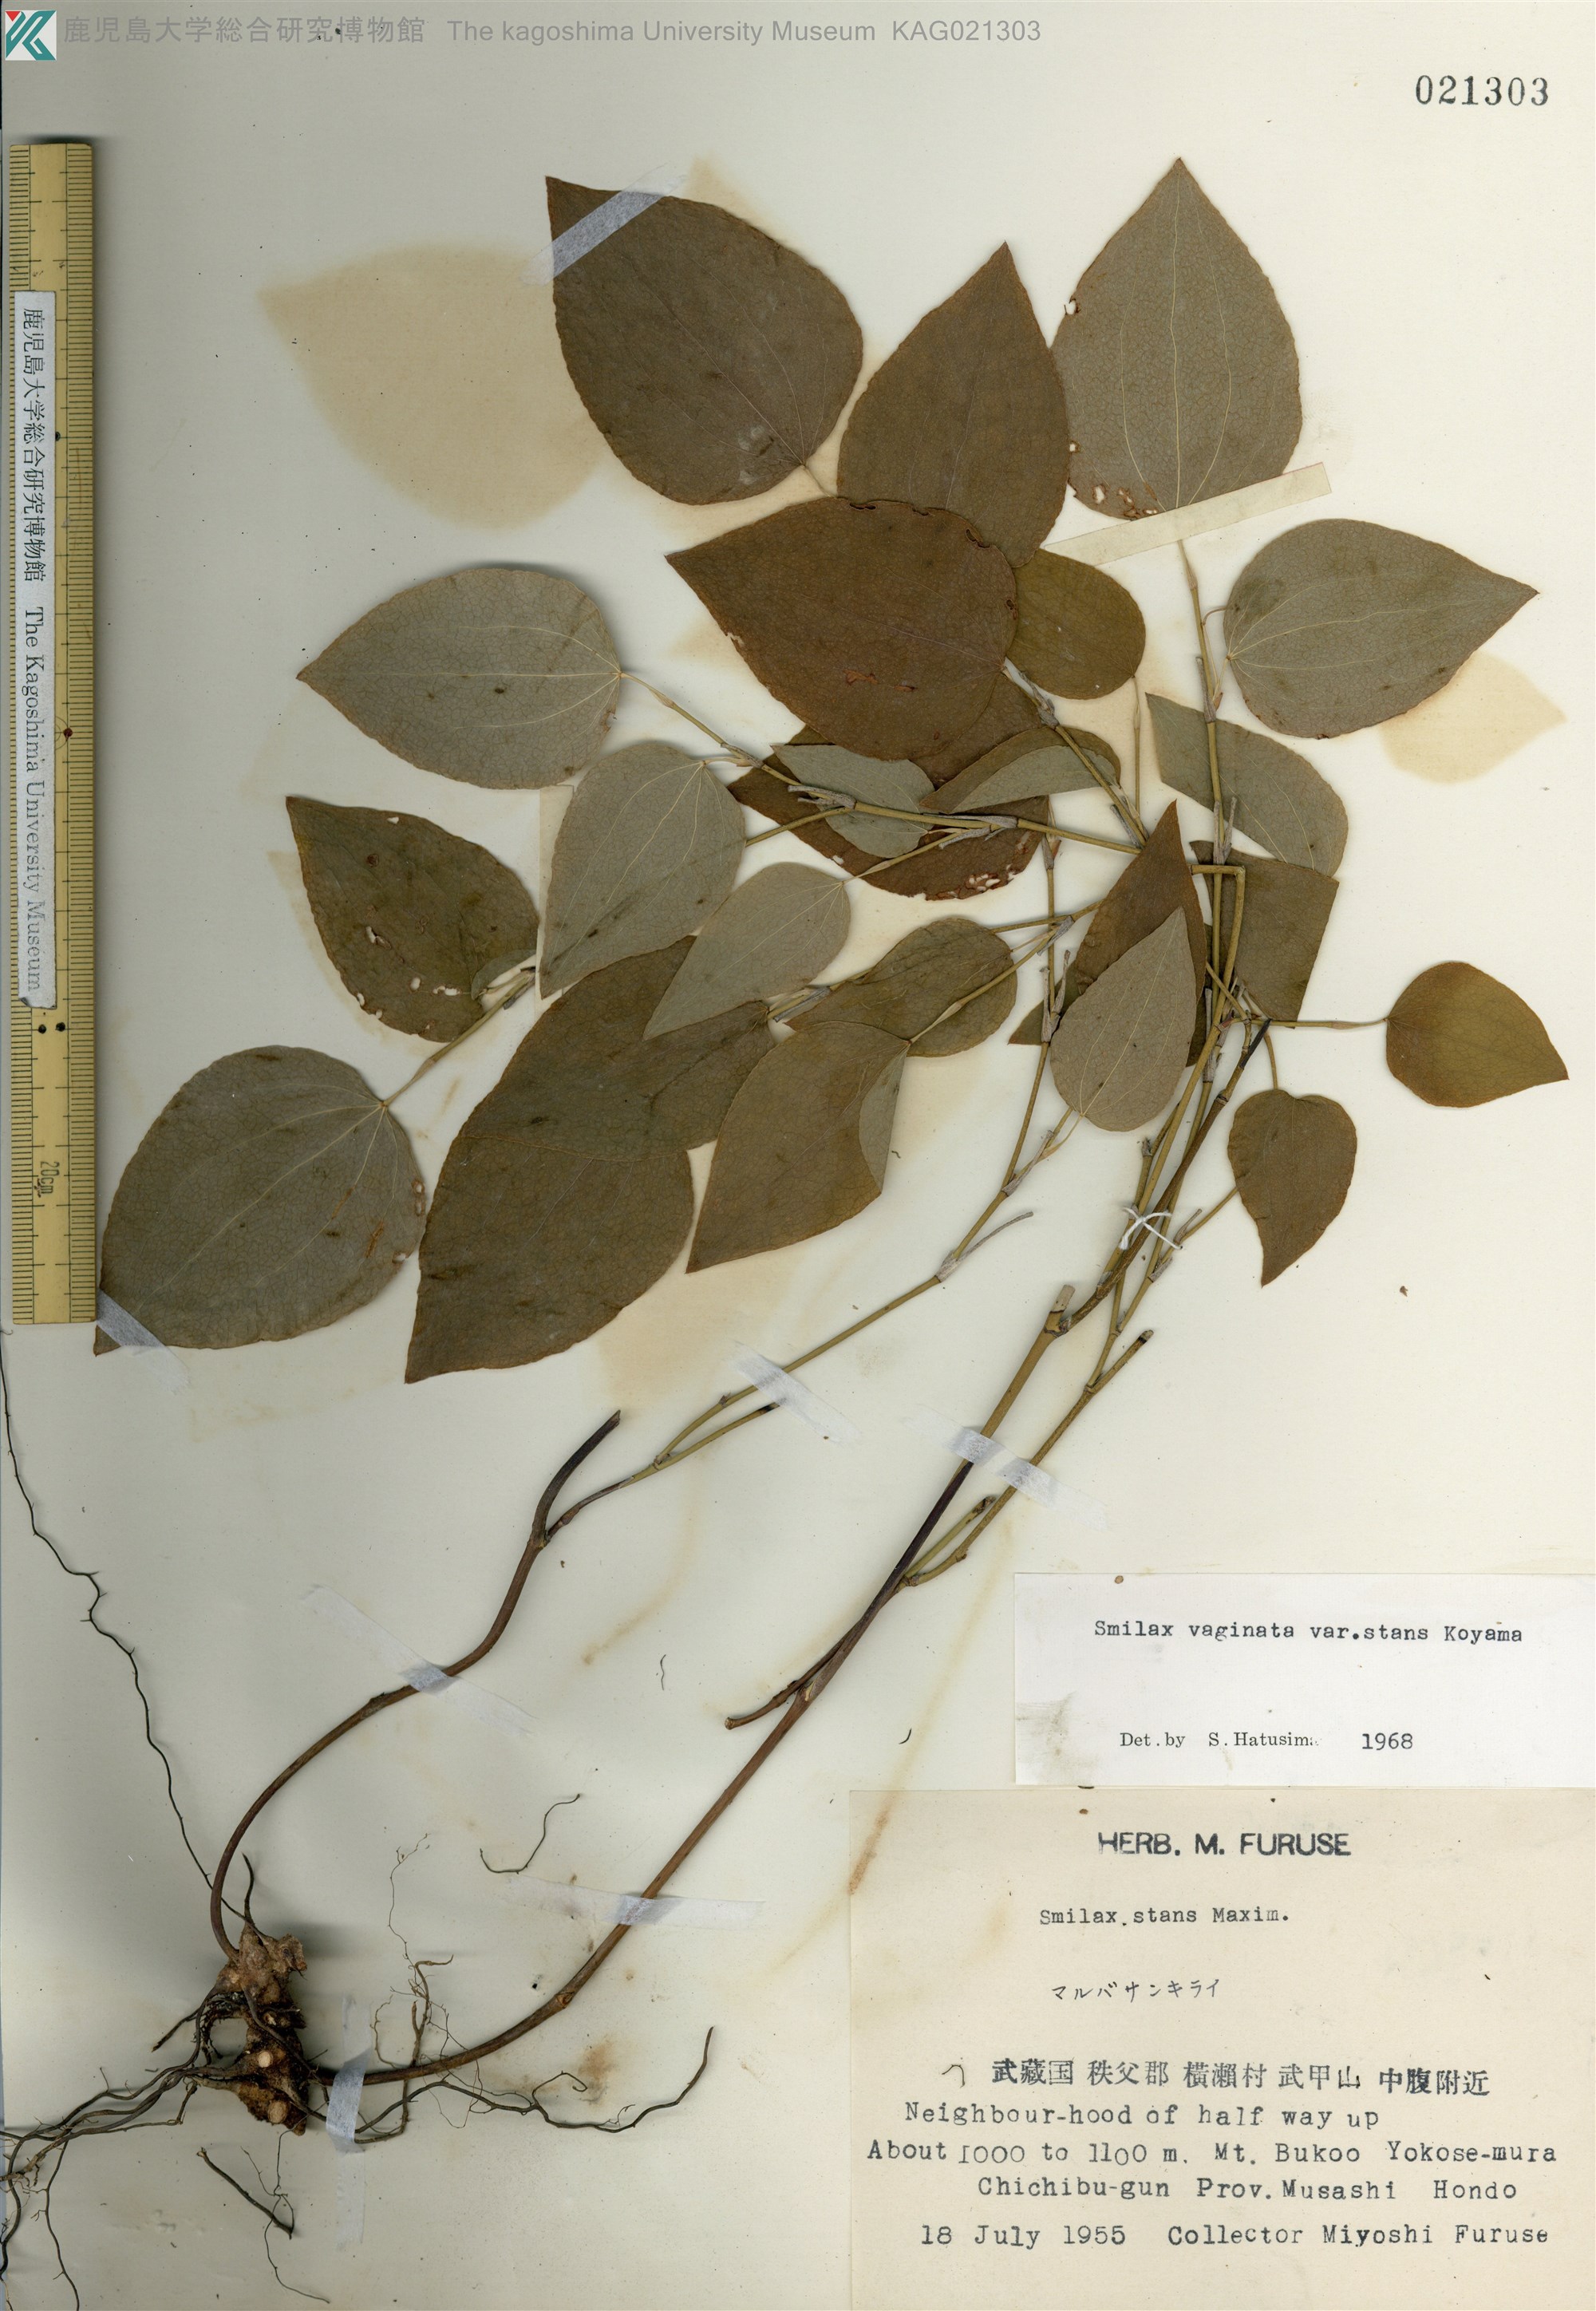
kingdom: Plantae
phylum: Tracheophyta
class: Liliopsida
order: Liliales
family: Smilacaceae
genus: Smilax
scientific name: Smilax stans
